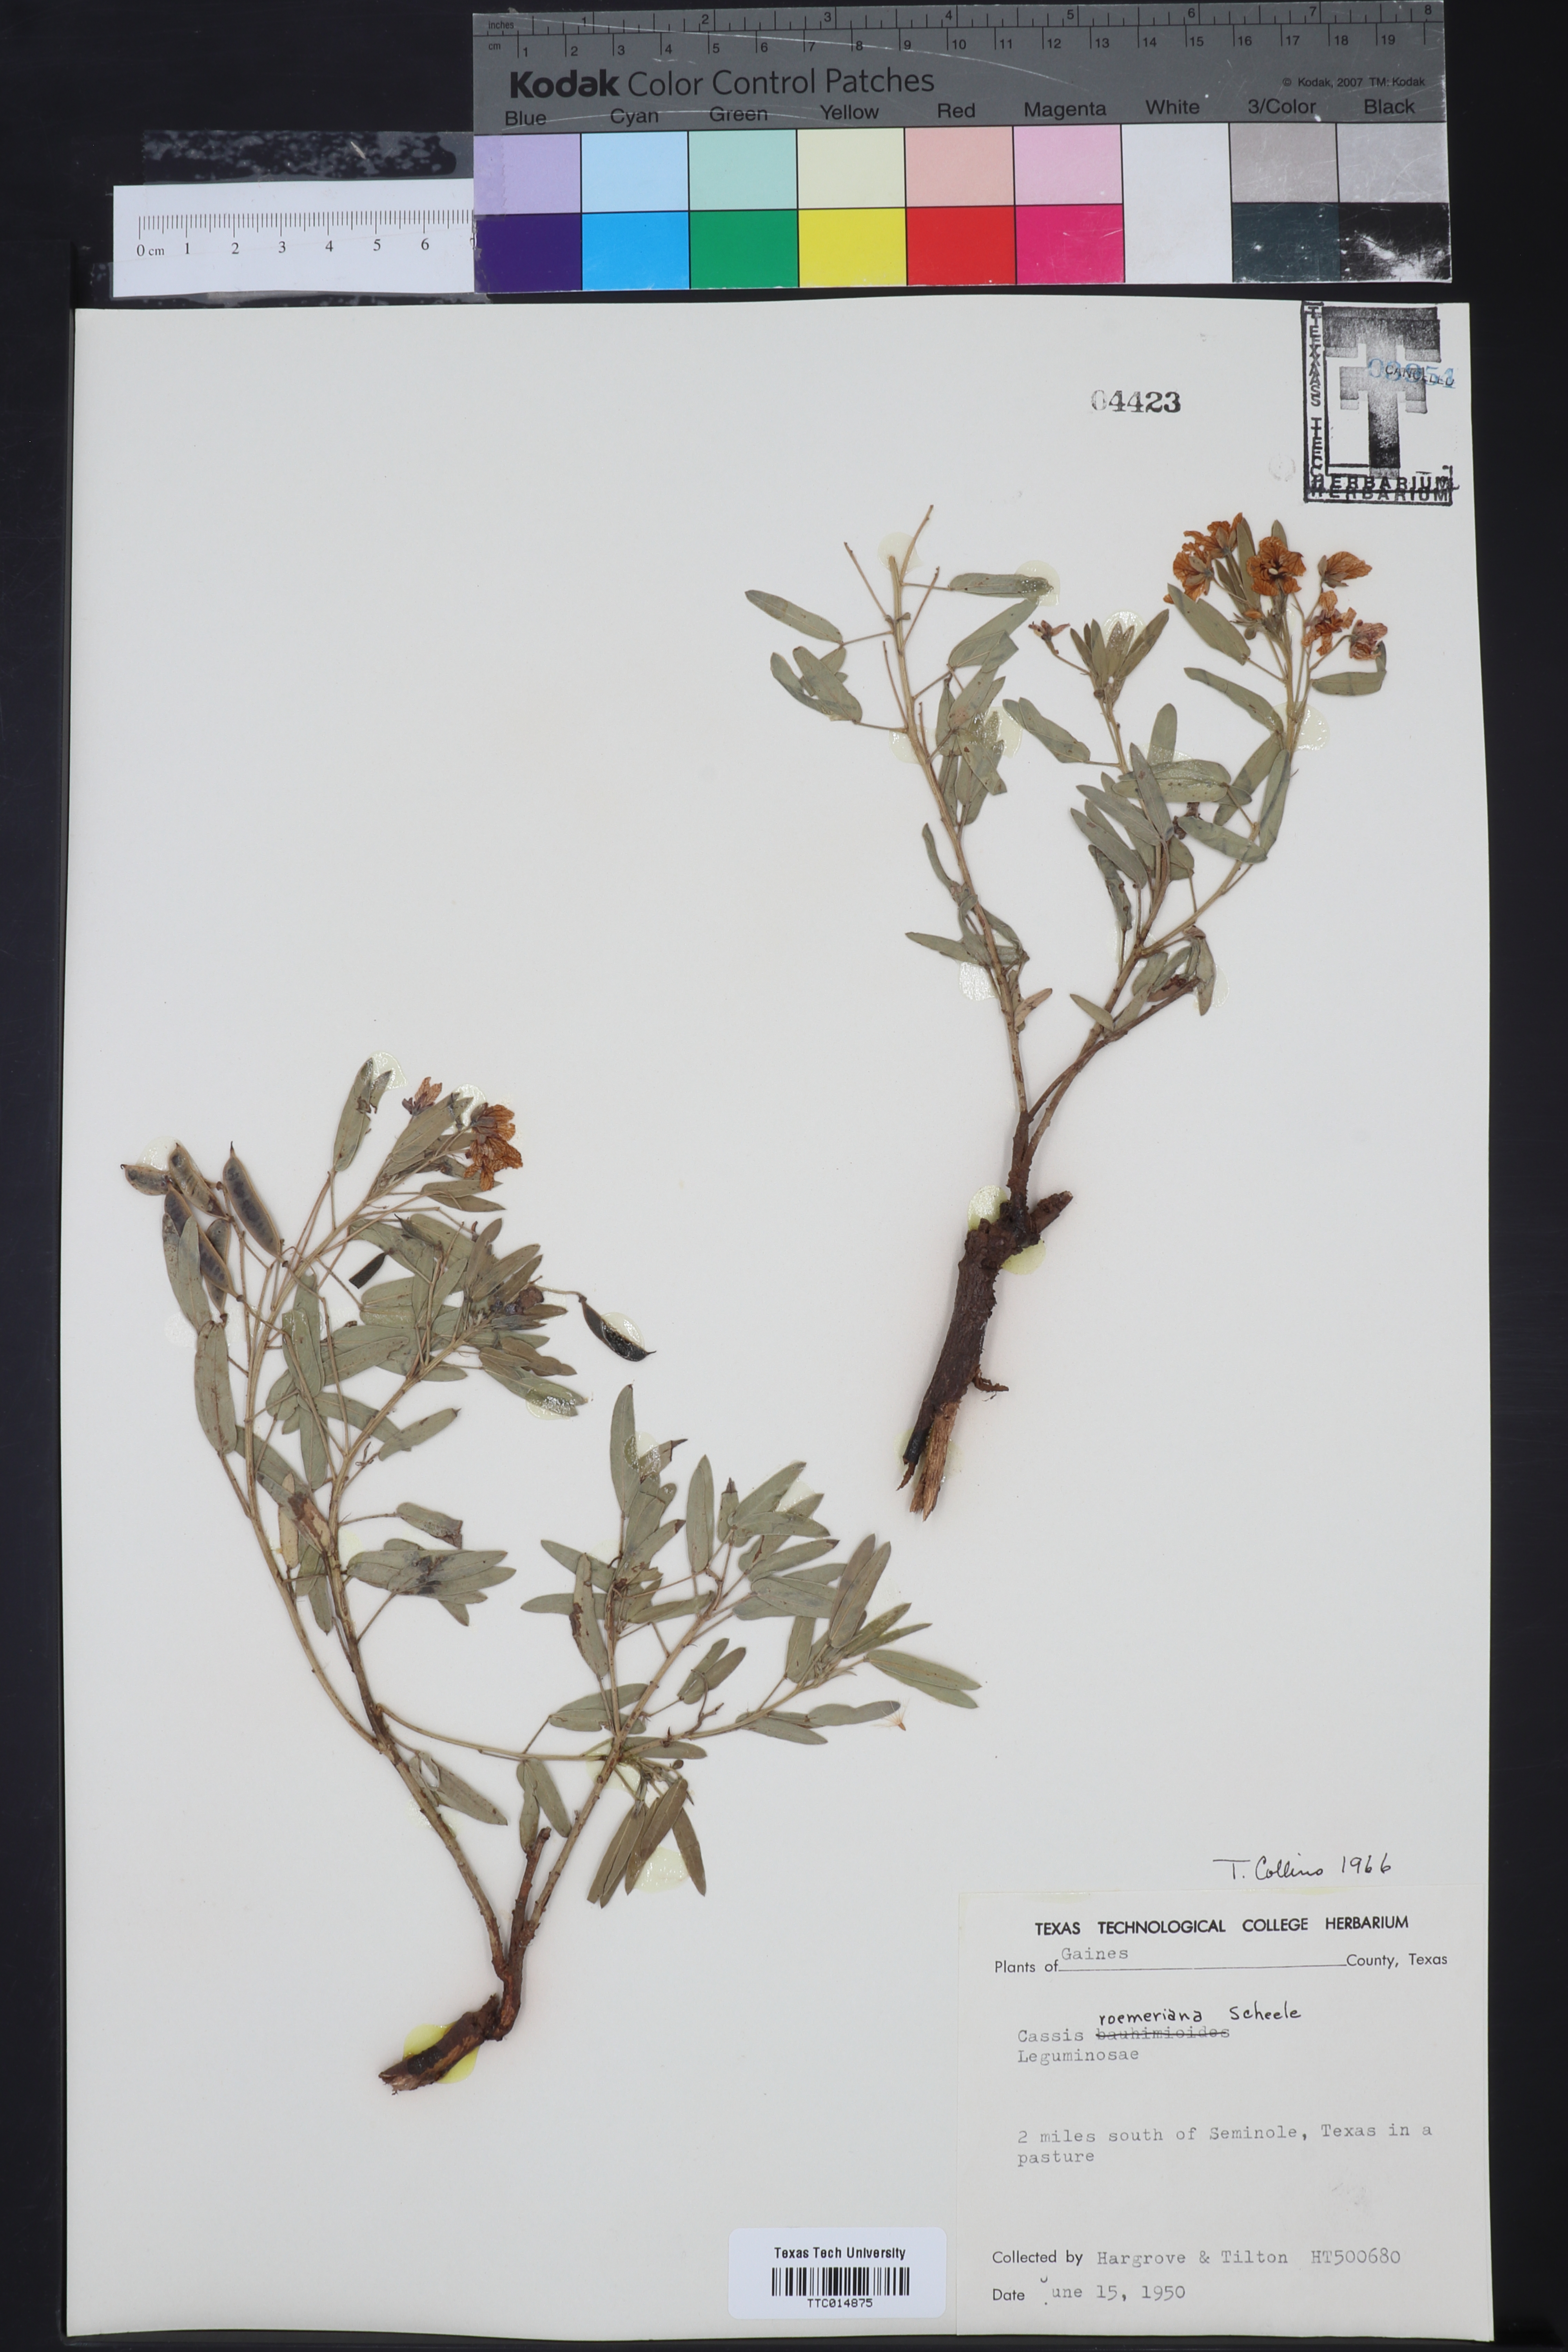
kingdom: Plantae
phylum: Tracheophyta
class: Magnoliopsida
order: Fabales
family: Fabaceae
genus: Senna
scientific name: Senna roemeriana
